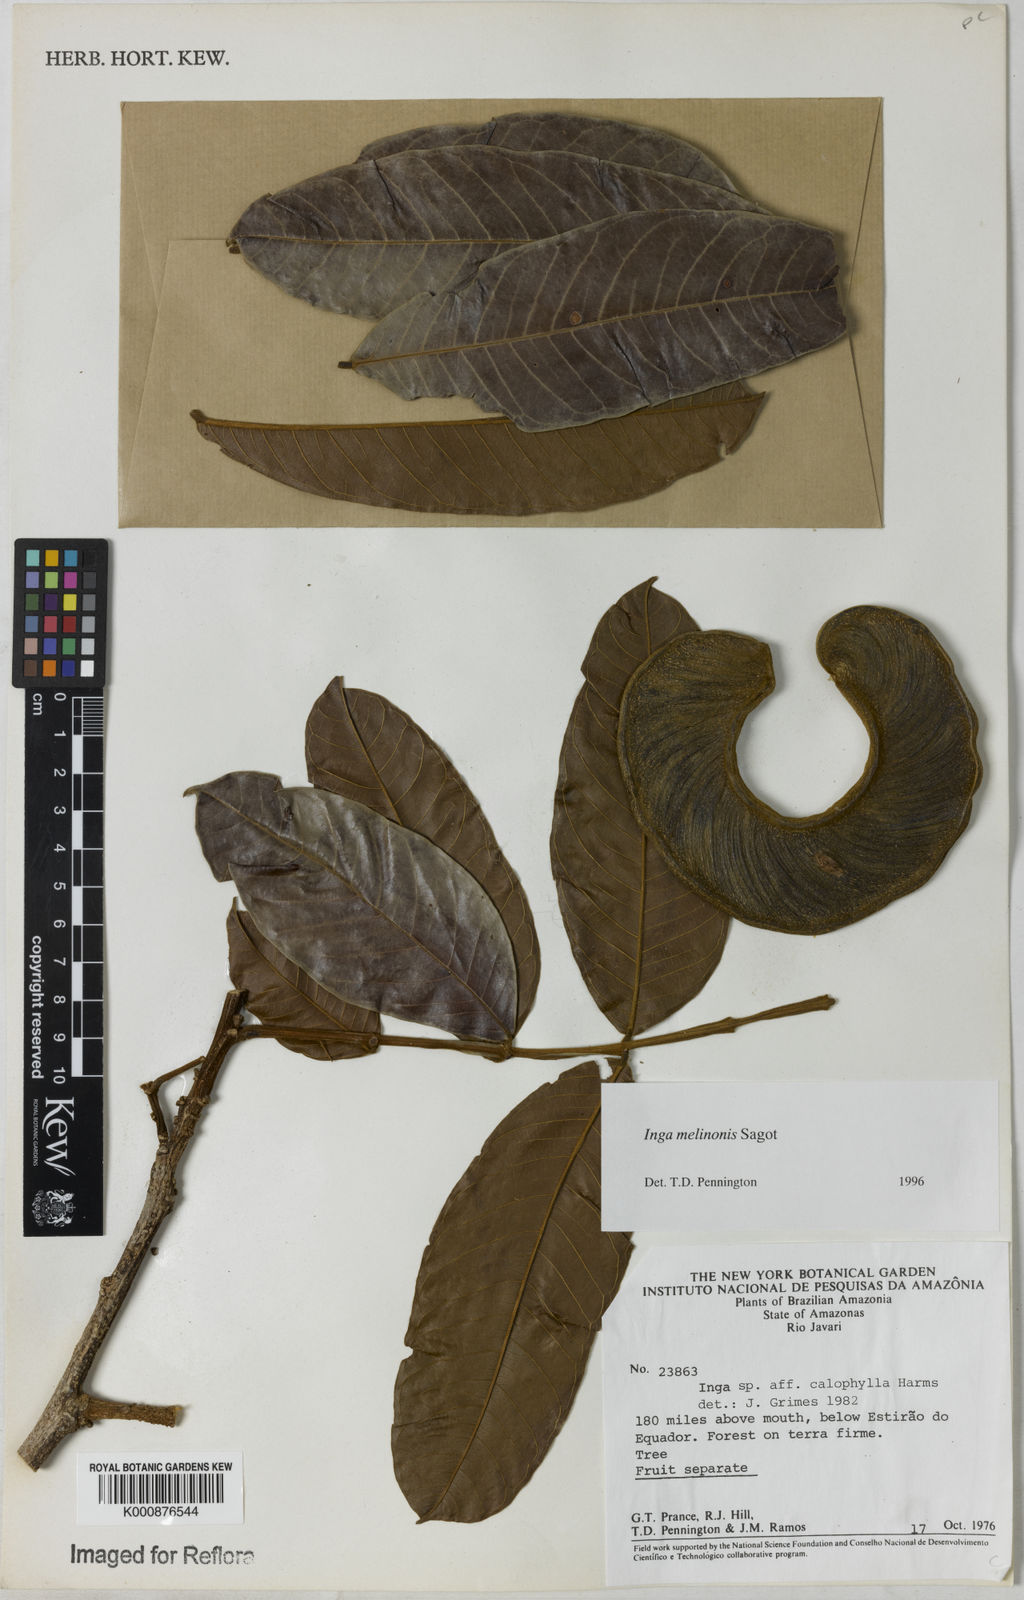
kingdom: Plantae
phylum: Tracheophyta
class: Magnoliopsida
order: Fabales
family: Fabaceae
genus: Inga
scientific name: Inga ruiziana
